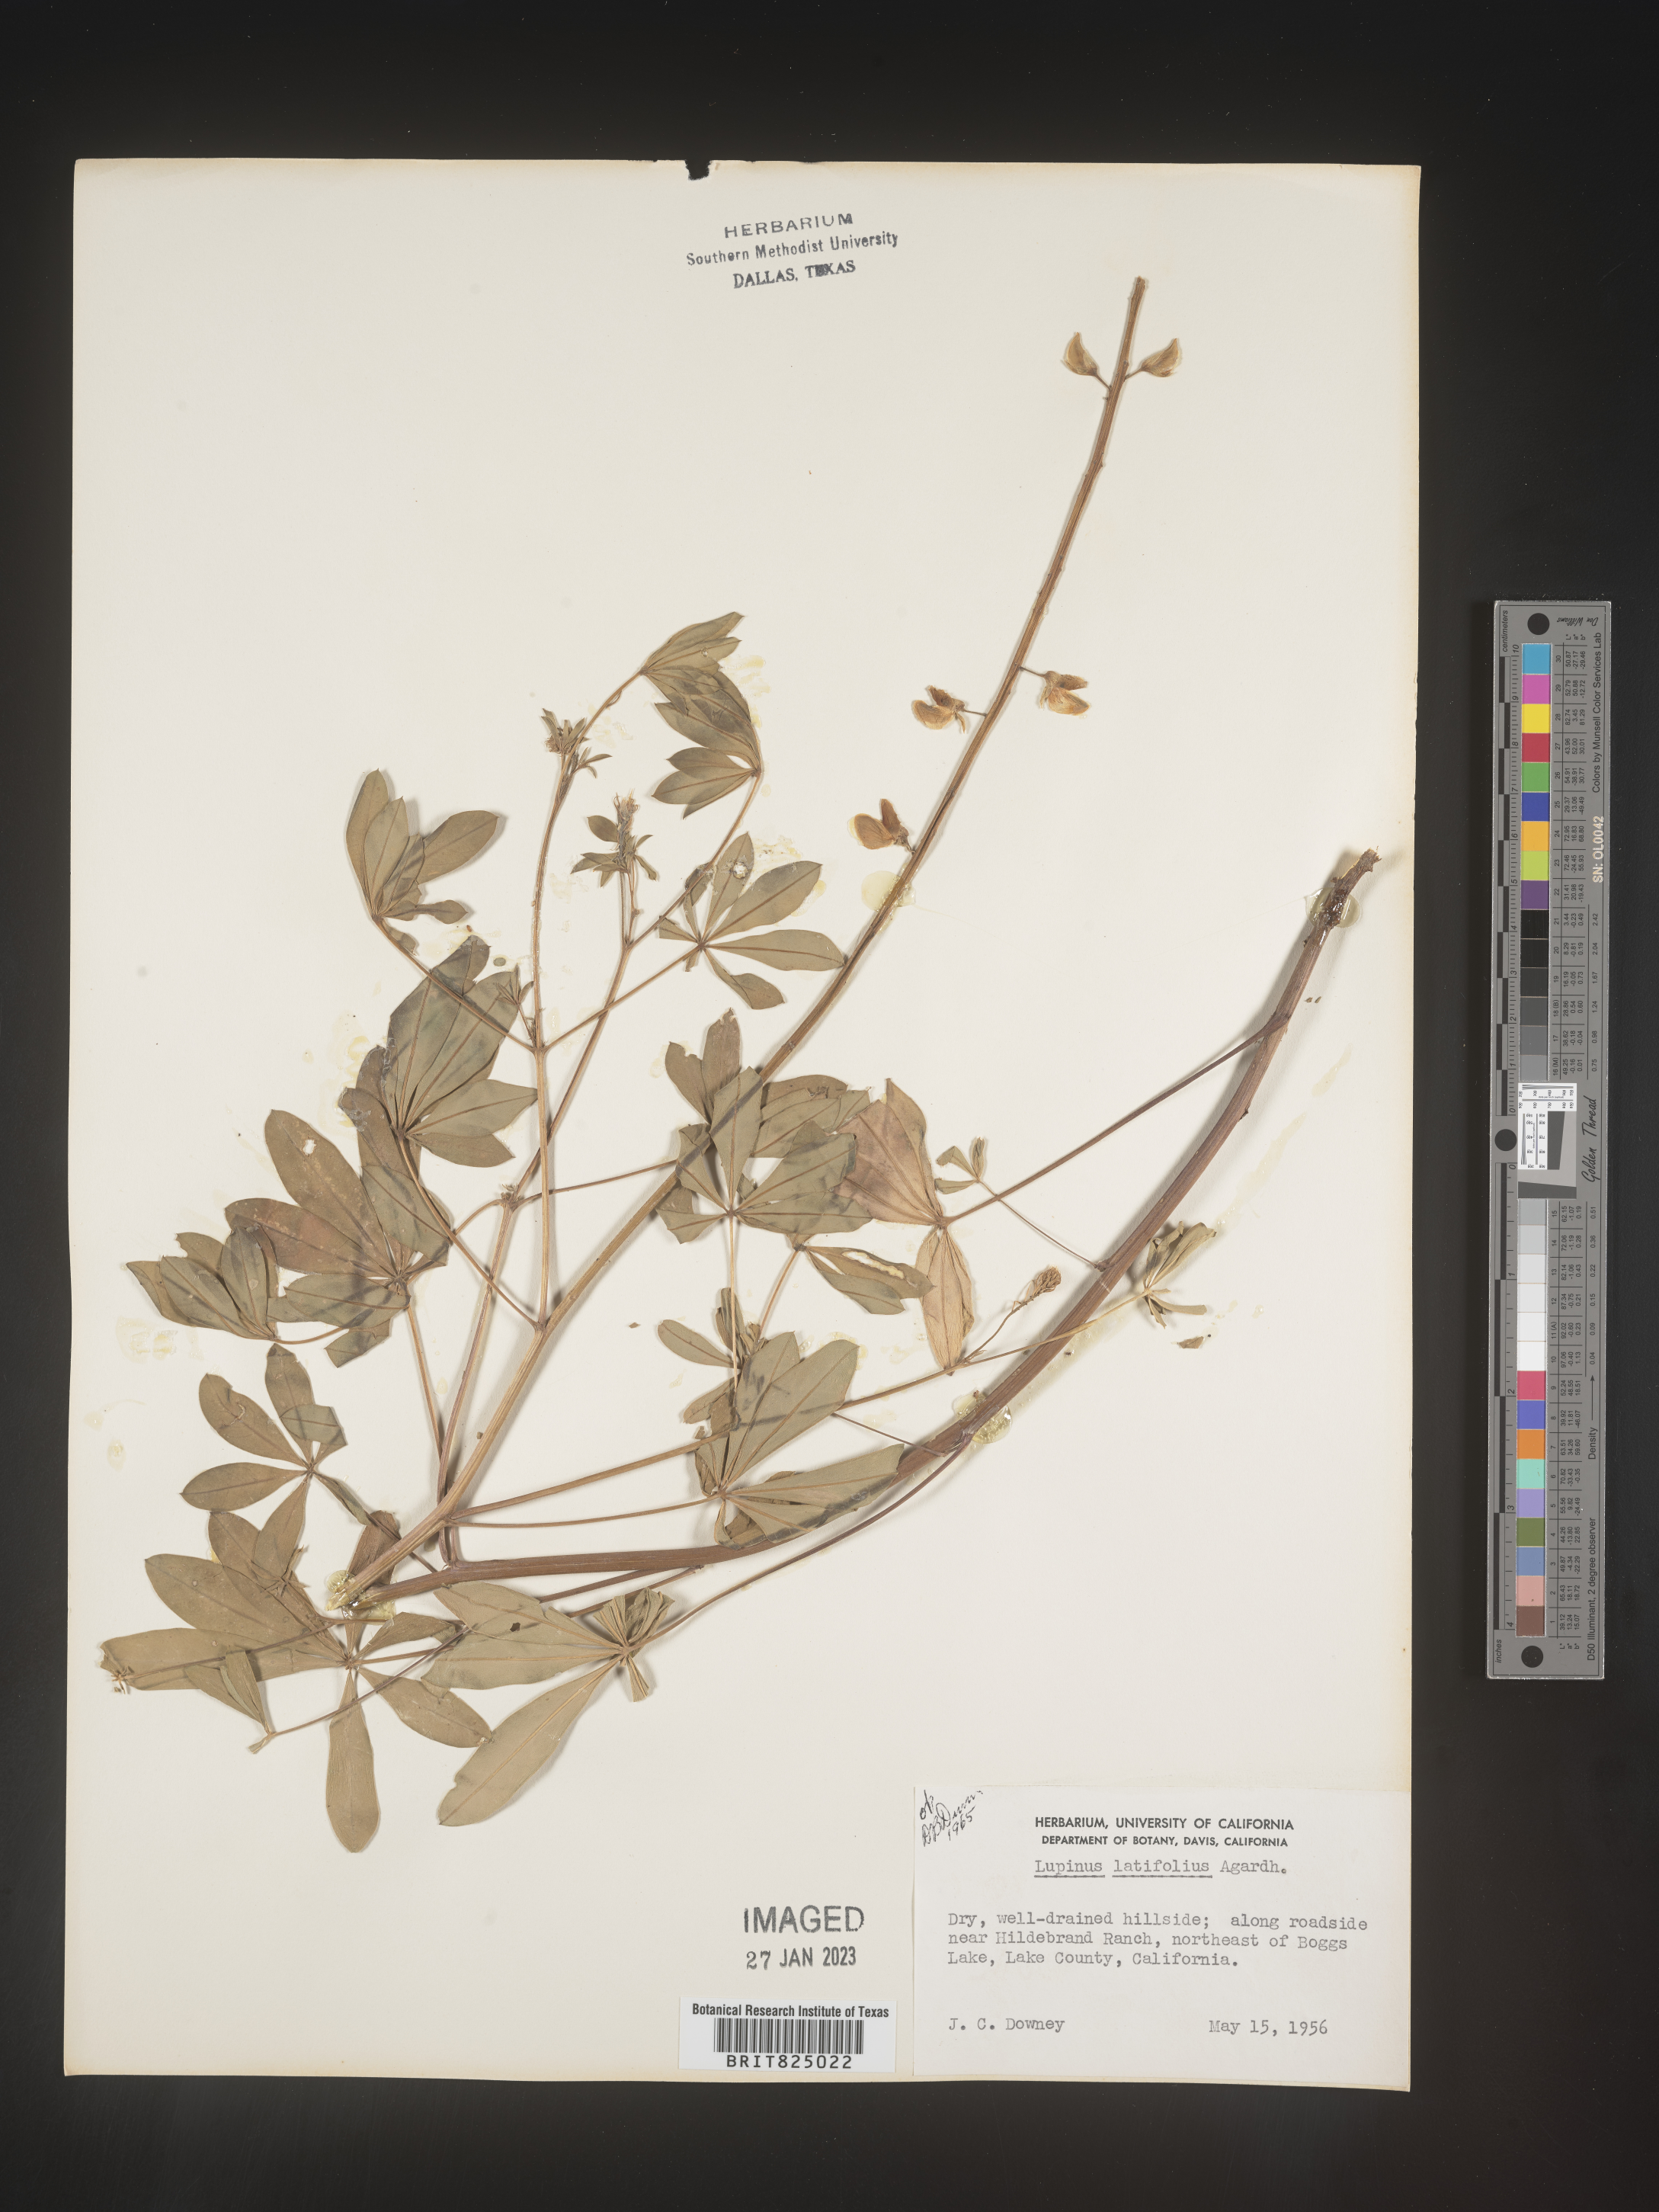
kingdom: Plantae
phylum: Tracheophyta
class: Magnoliopsida
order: Fabales
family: Fabaceae
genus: Lupinus
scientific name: Lupinus
